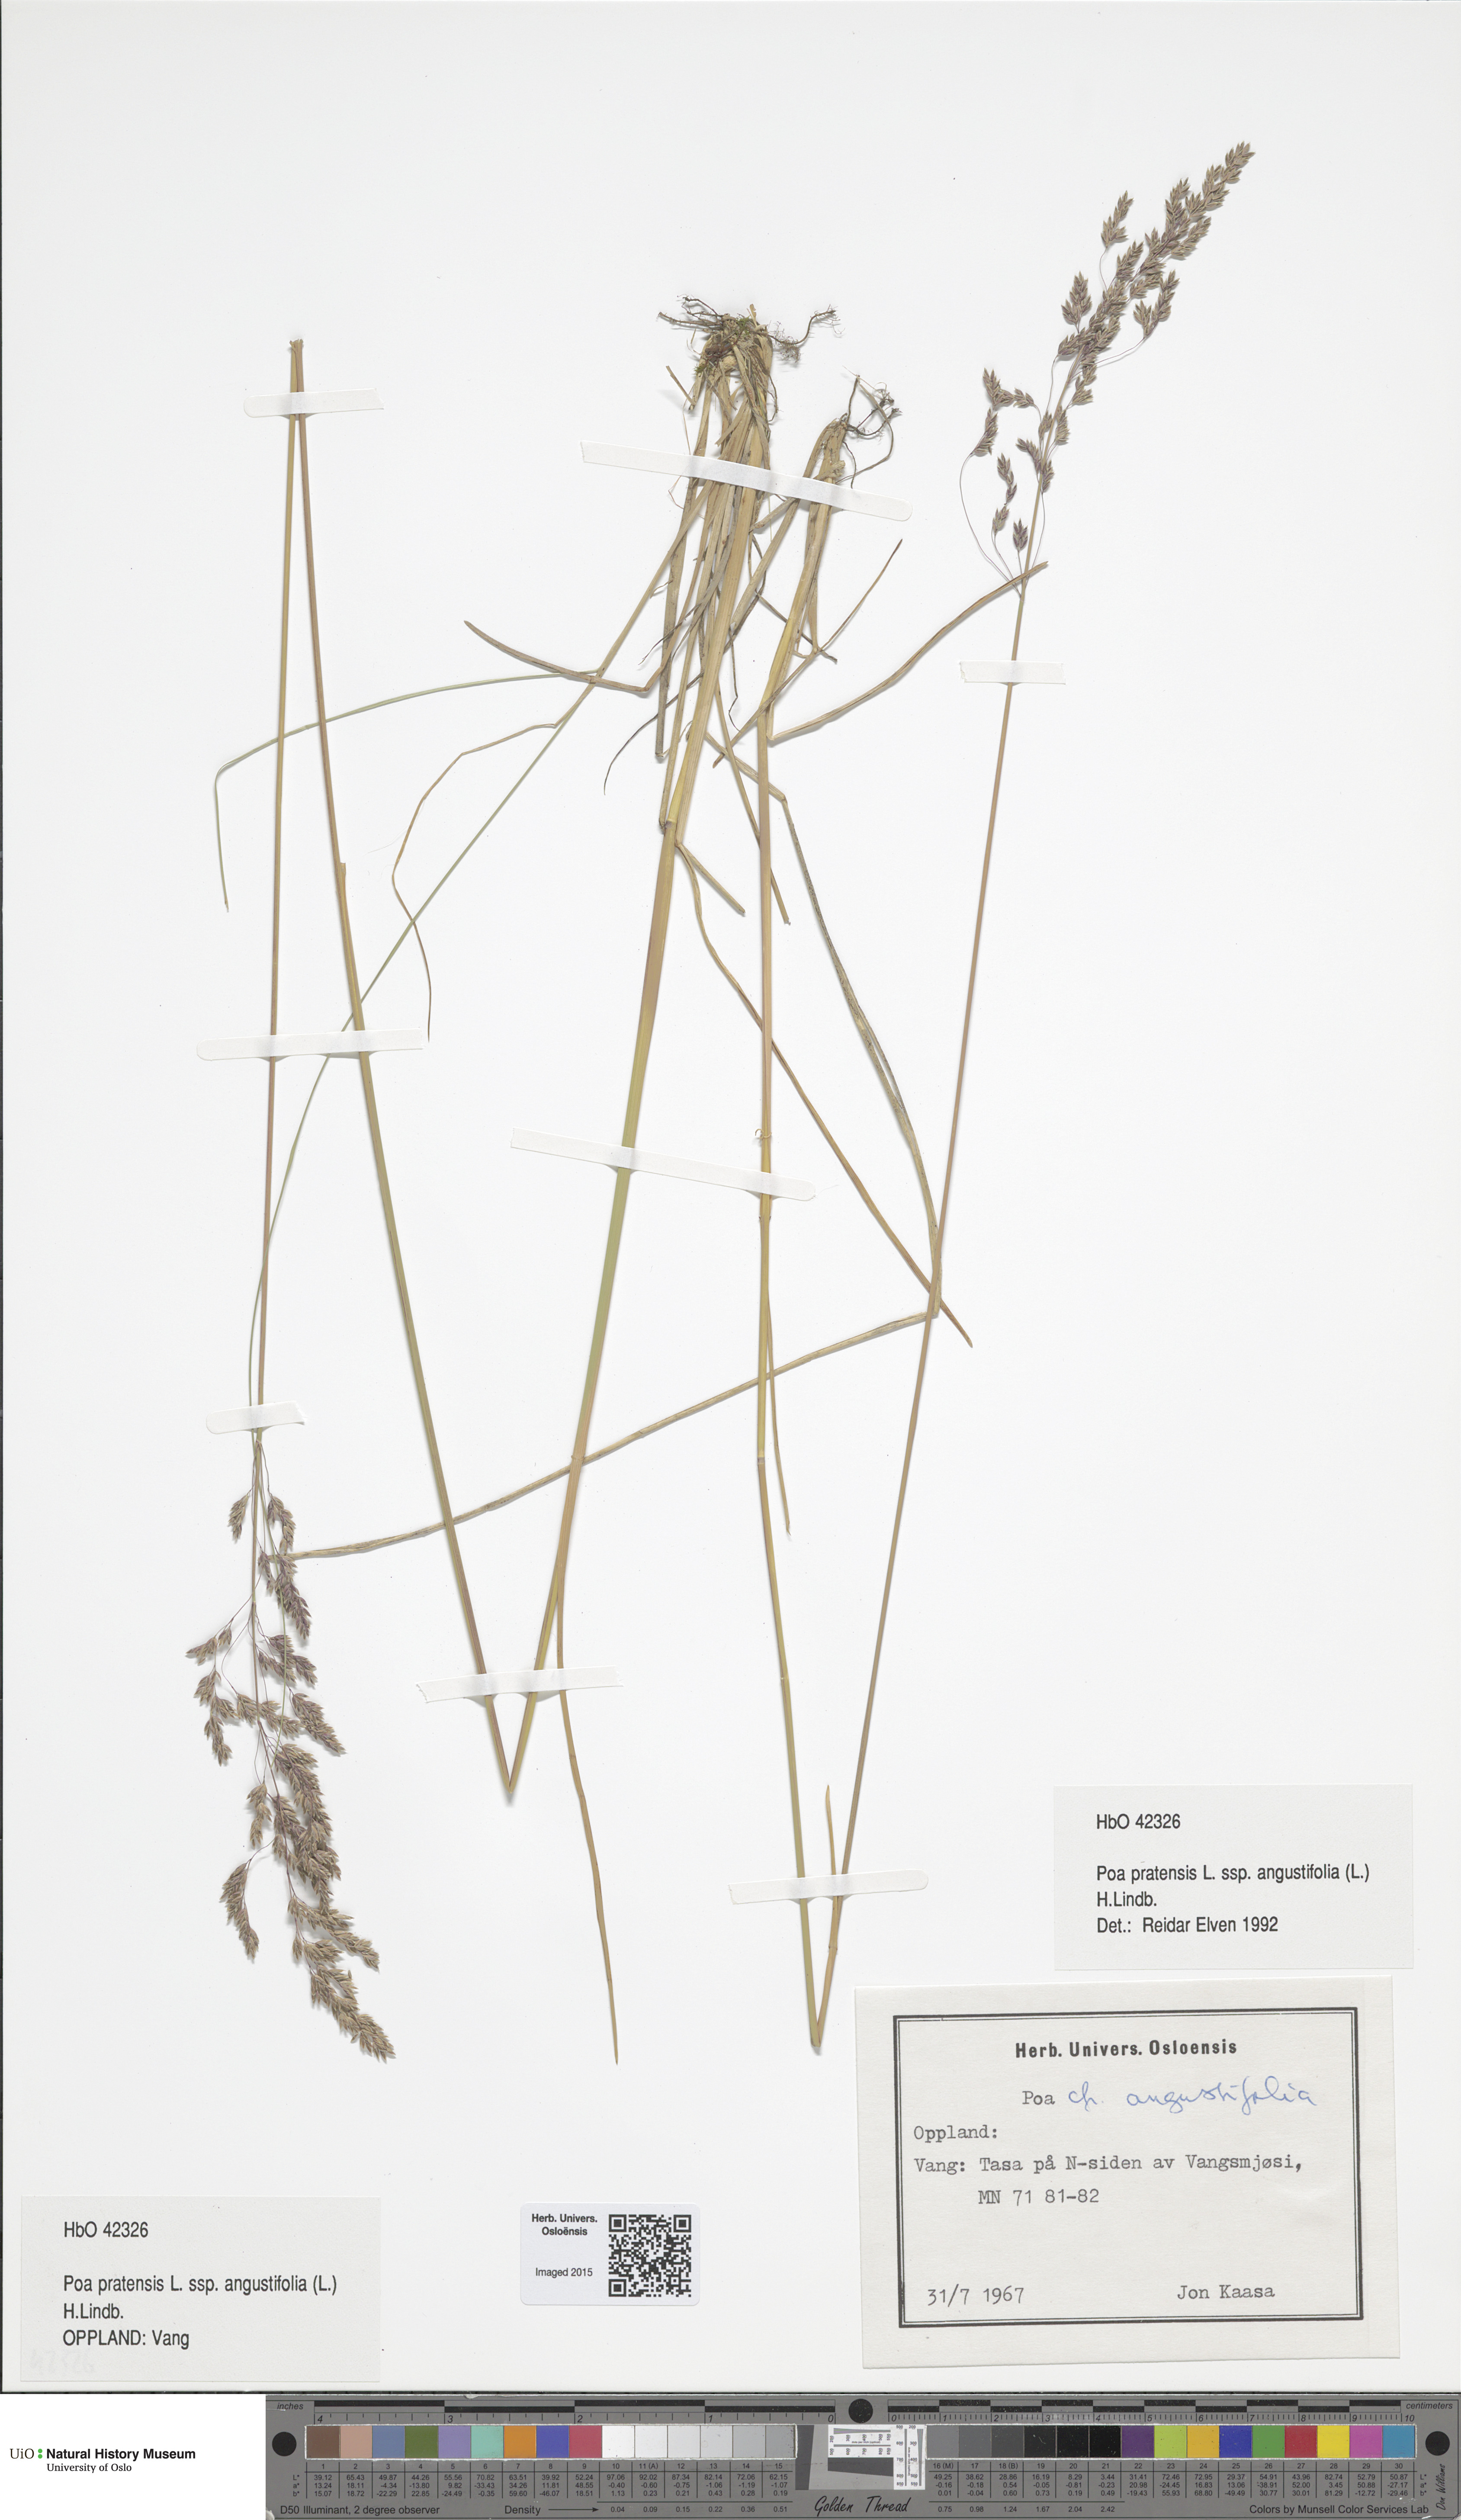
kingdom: Plantae
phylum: Tracheophyta
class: Liliopsida
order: Poales
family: Poaceae
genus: Poa
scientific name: Poa angustifolia
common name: Narrow-leaved meadow-grass
